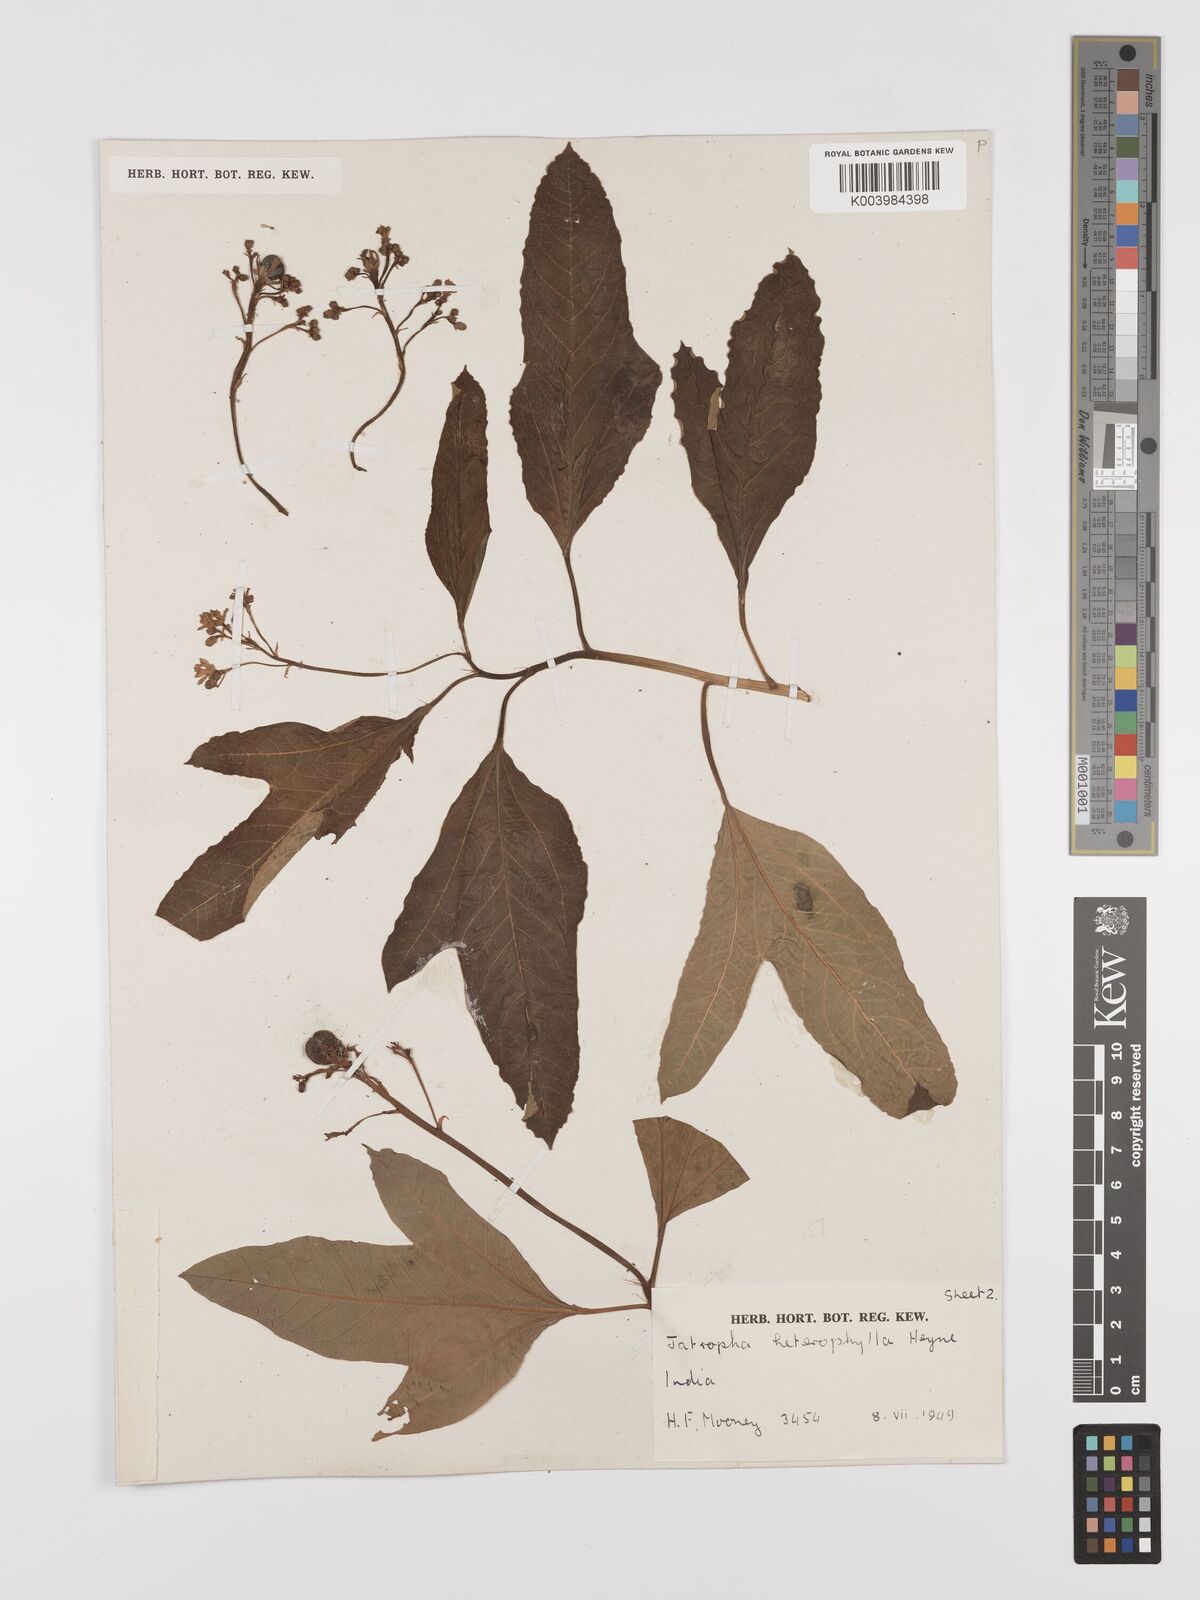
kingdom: Plantae
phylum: Tracheophyta
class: Magnoliopsida
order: Malpighiales
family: Euphorbiaceae
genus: Jatropha
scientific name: Jatropha
